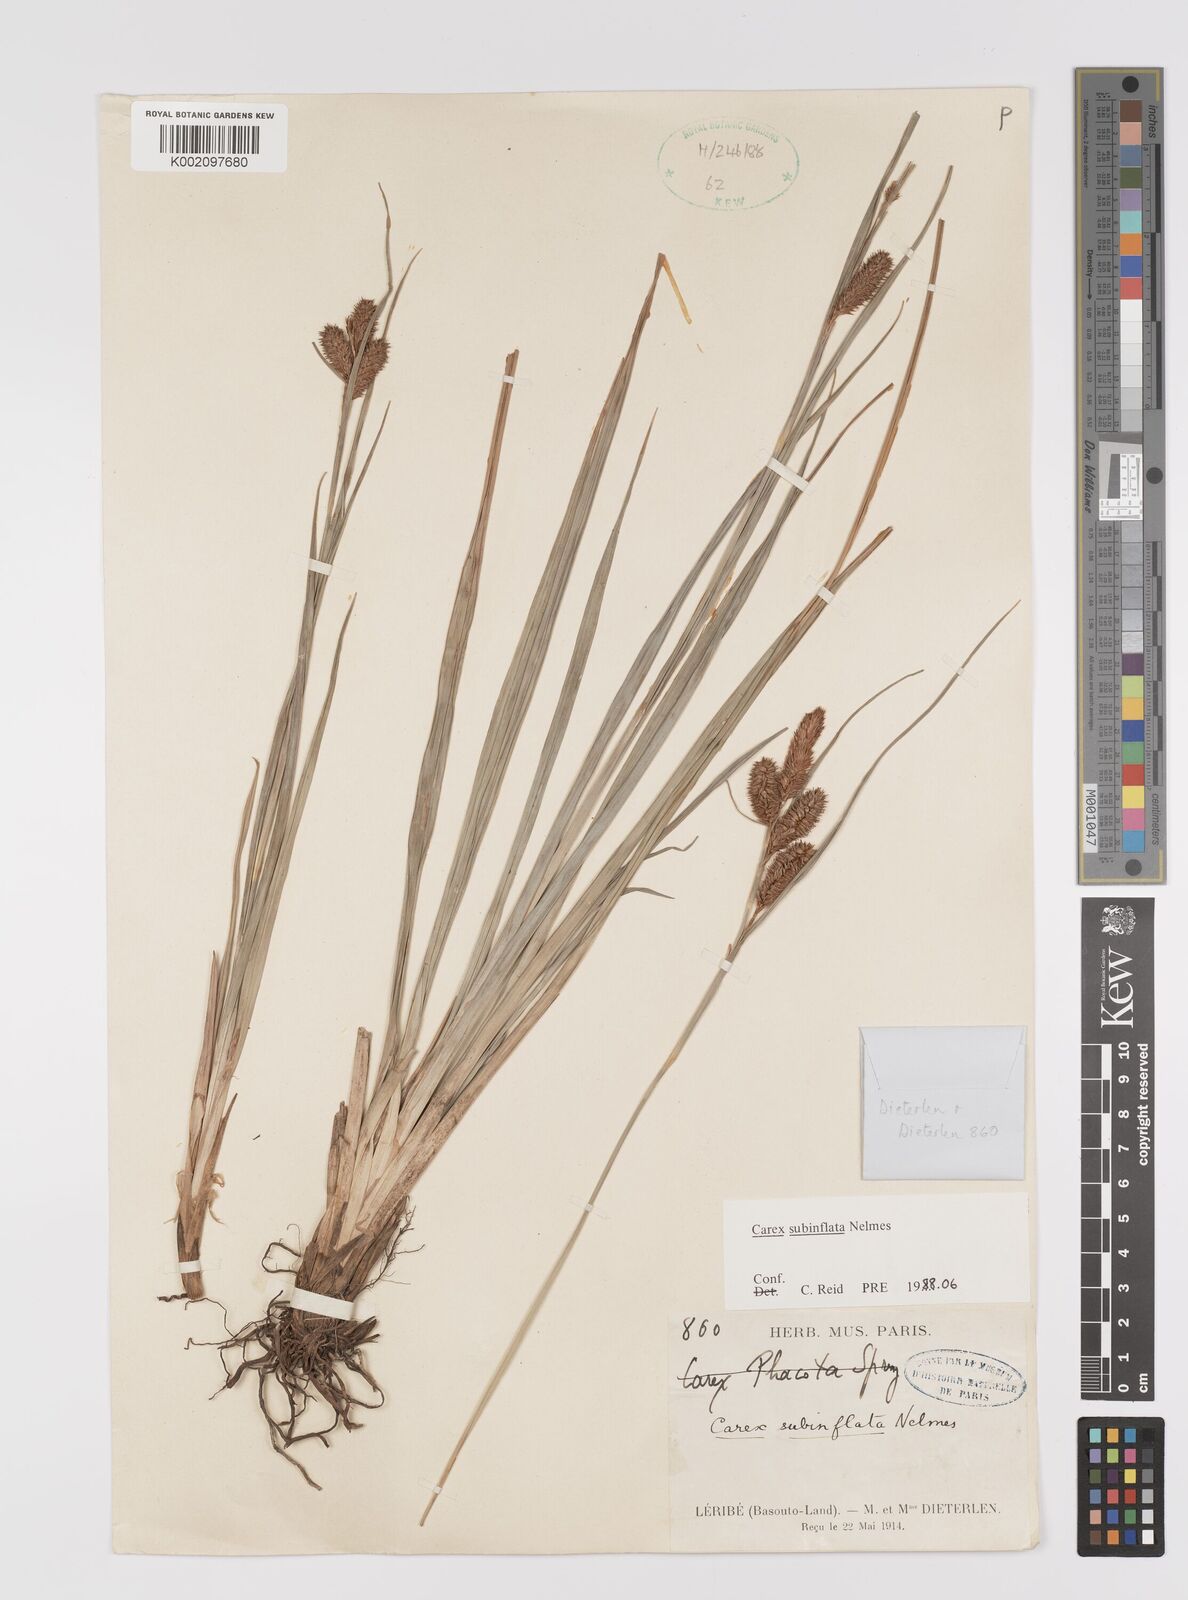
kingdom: Plantae
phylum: Tracheophyta
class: Liliopsida
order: Poales
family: Cyperaceae
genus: Carex
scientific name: Carex subinflata
